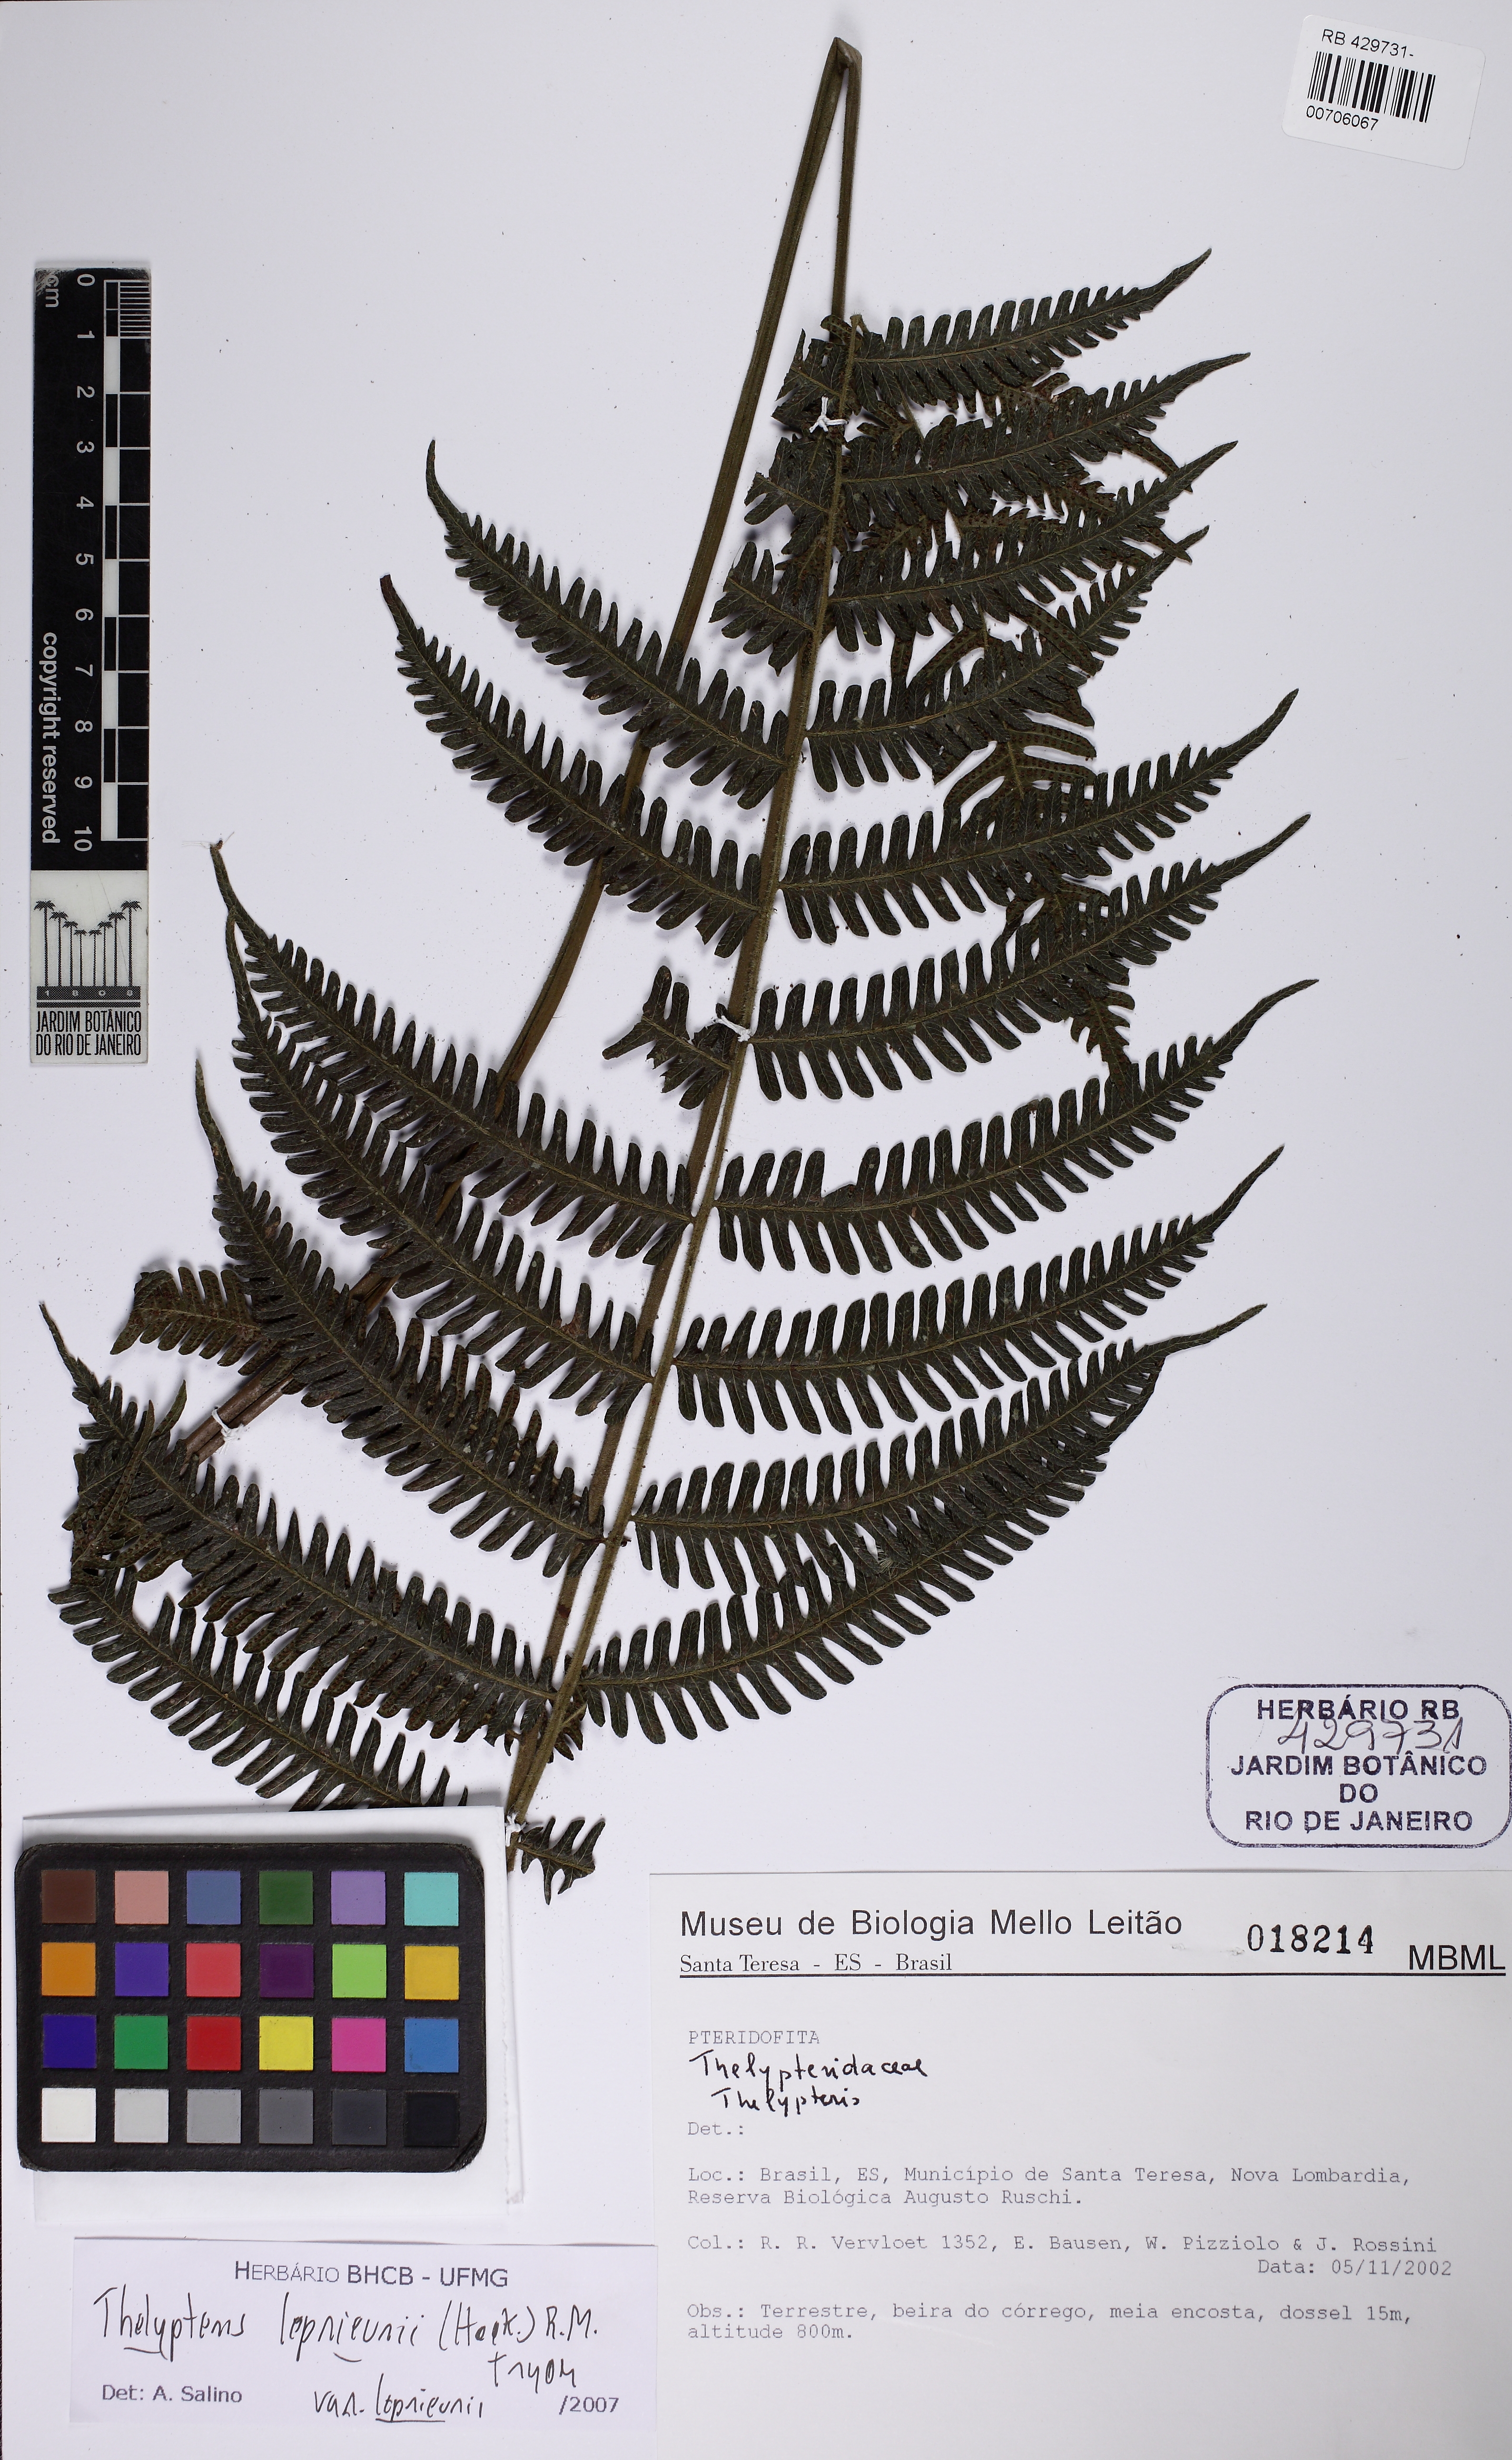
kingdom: Plantae
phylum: Tracheophyta
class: Polypodiopsida
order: Polypodiales
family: Thelypteridaceae
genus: Steiropteris
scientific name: Steiropteris leprieurii
